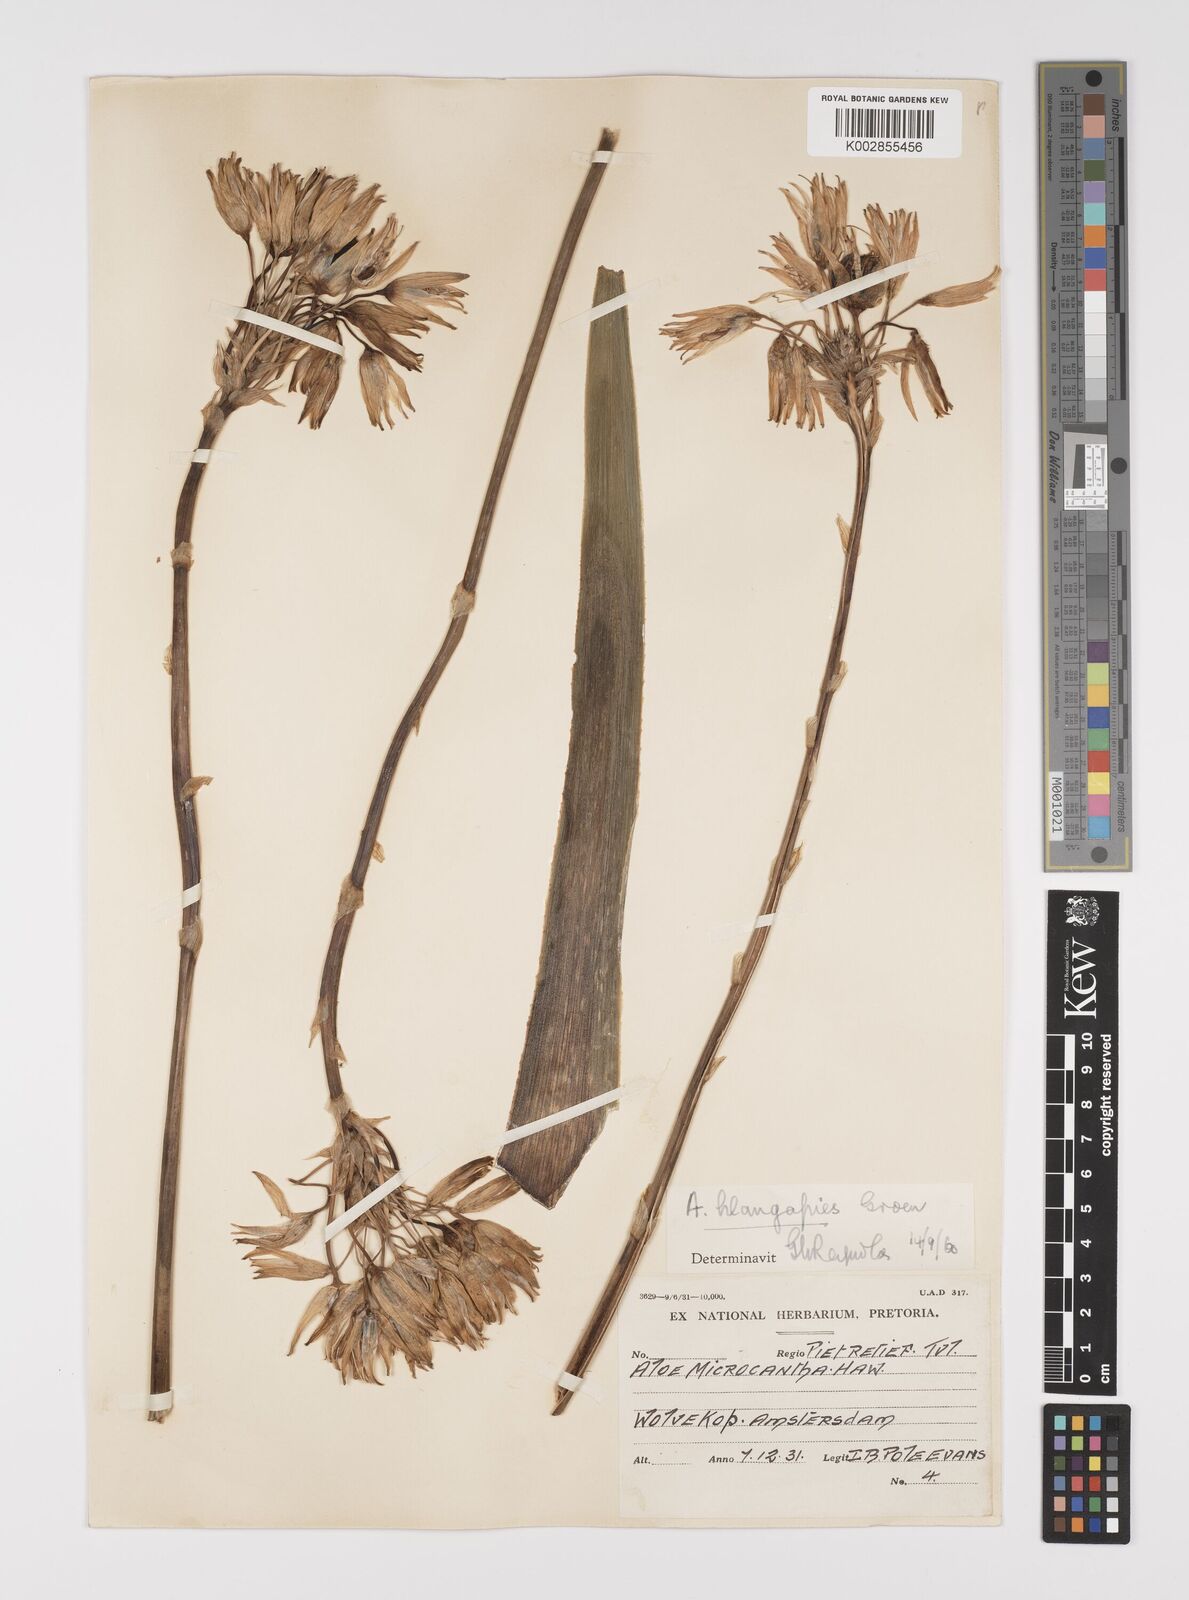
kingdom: Plantae
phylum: Tracheophyta
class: Liliopsida
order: Asparagales
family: Asphodelaceae
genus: Aloe
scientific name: Aloe hlangapies
